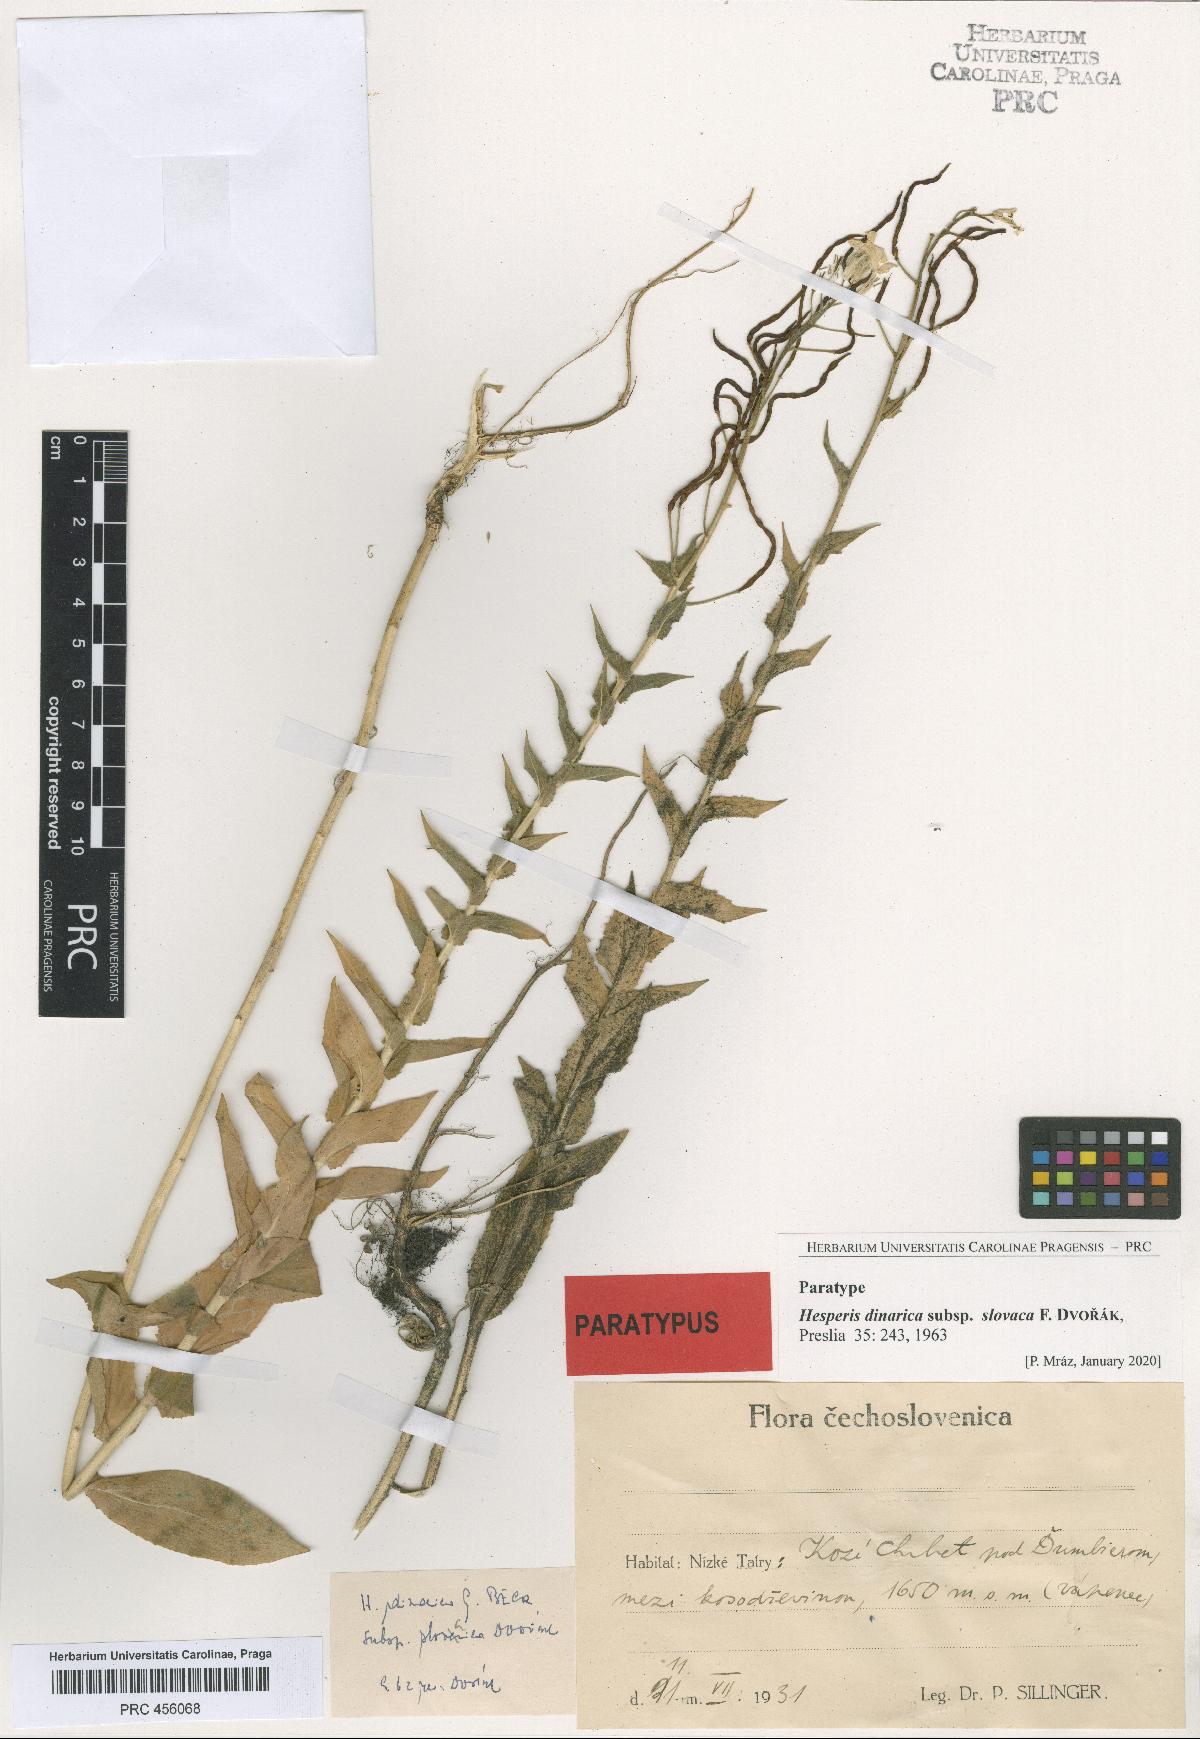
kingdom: Plantae
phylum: Tracheophyta
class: Magnoliopsida
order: Brassicales
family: Brassicaceae
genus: Hesperis
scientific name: Hesperis dinarica
